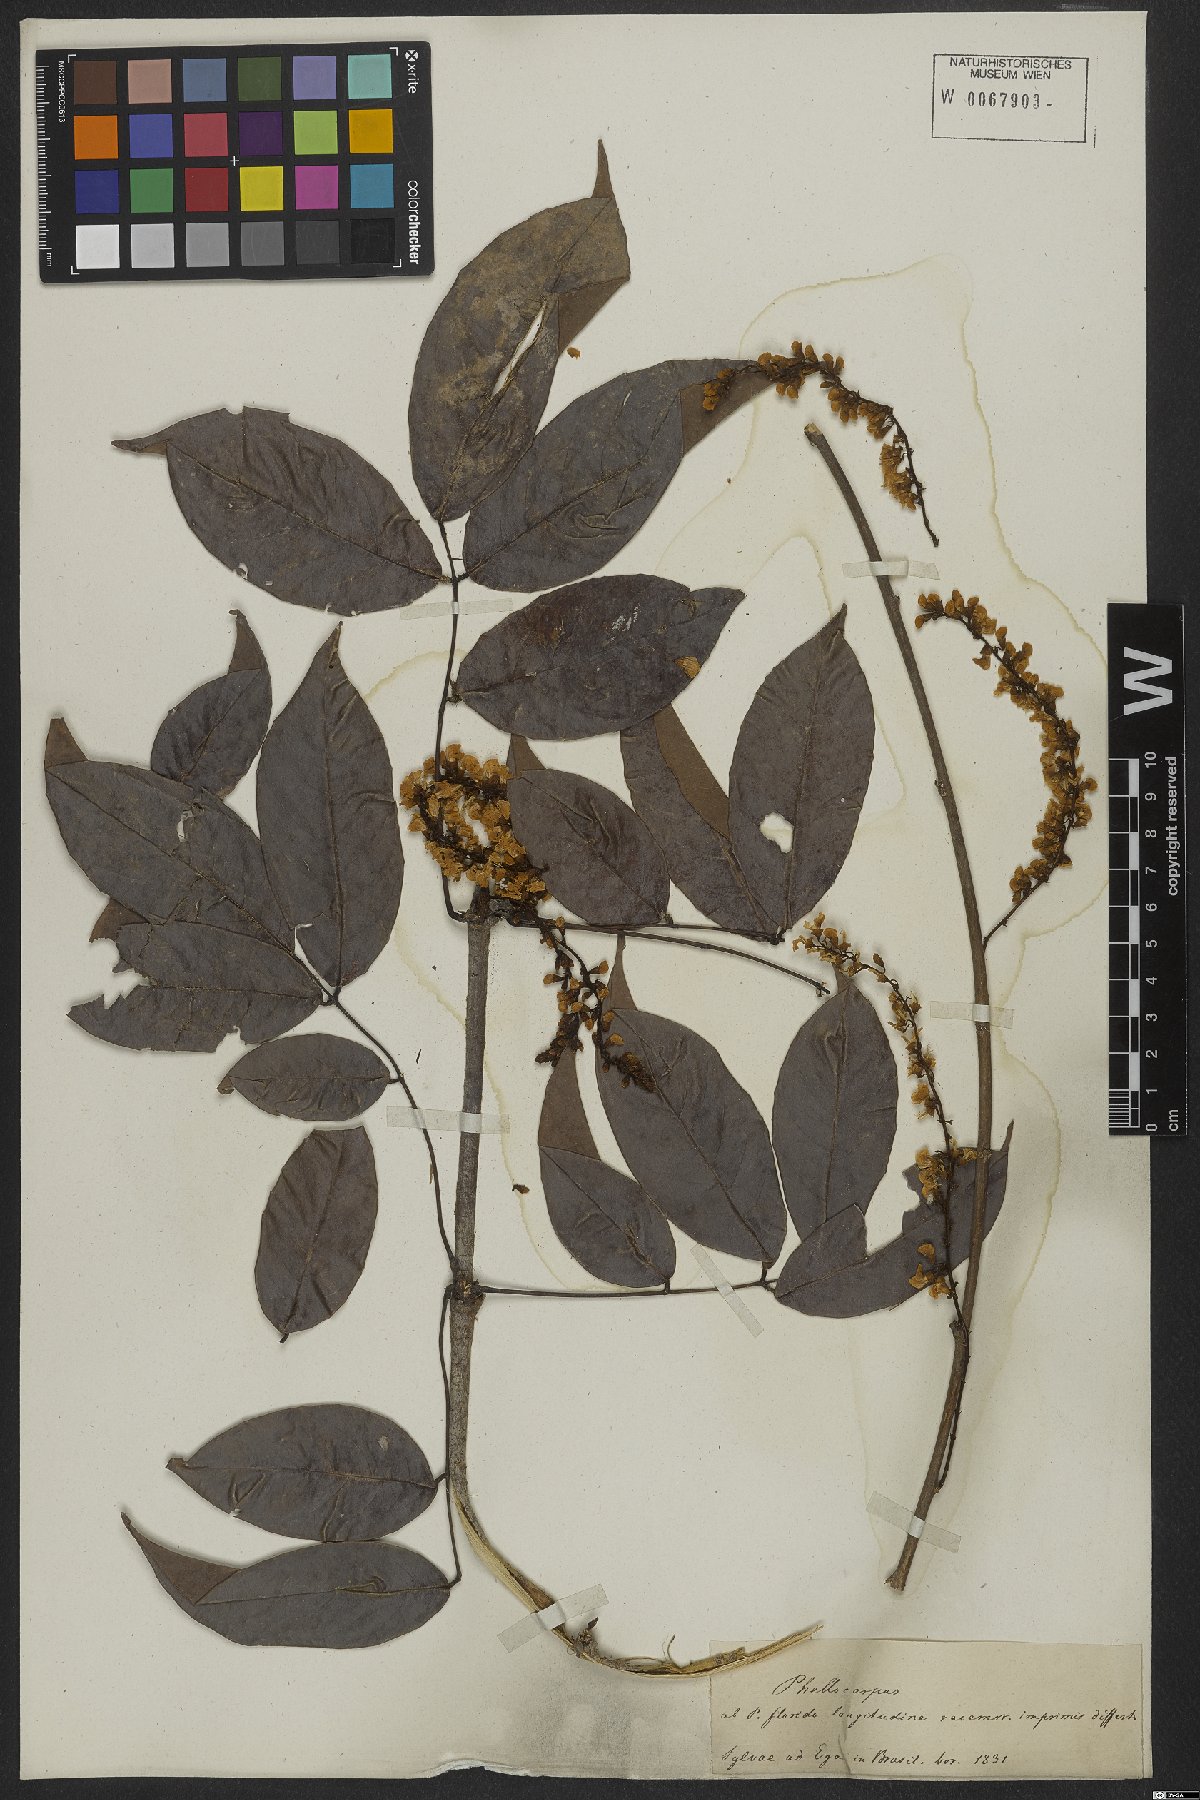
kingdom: Plantae
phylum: Tracheophyta
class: Magnoliopsida
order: Fabales
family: Fabaceae
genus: Pterocarpus
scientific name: Pterocarpus rohrii
